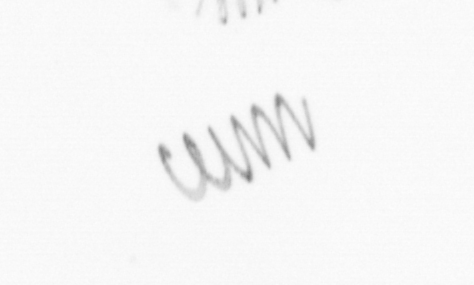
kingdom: Chromista
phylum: Ochrophyta
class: Bacillariophyceae
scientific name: Bacillariophyceae
